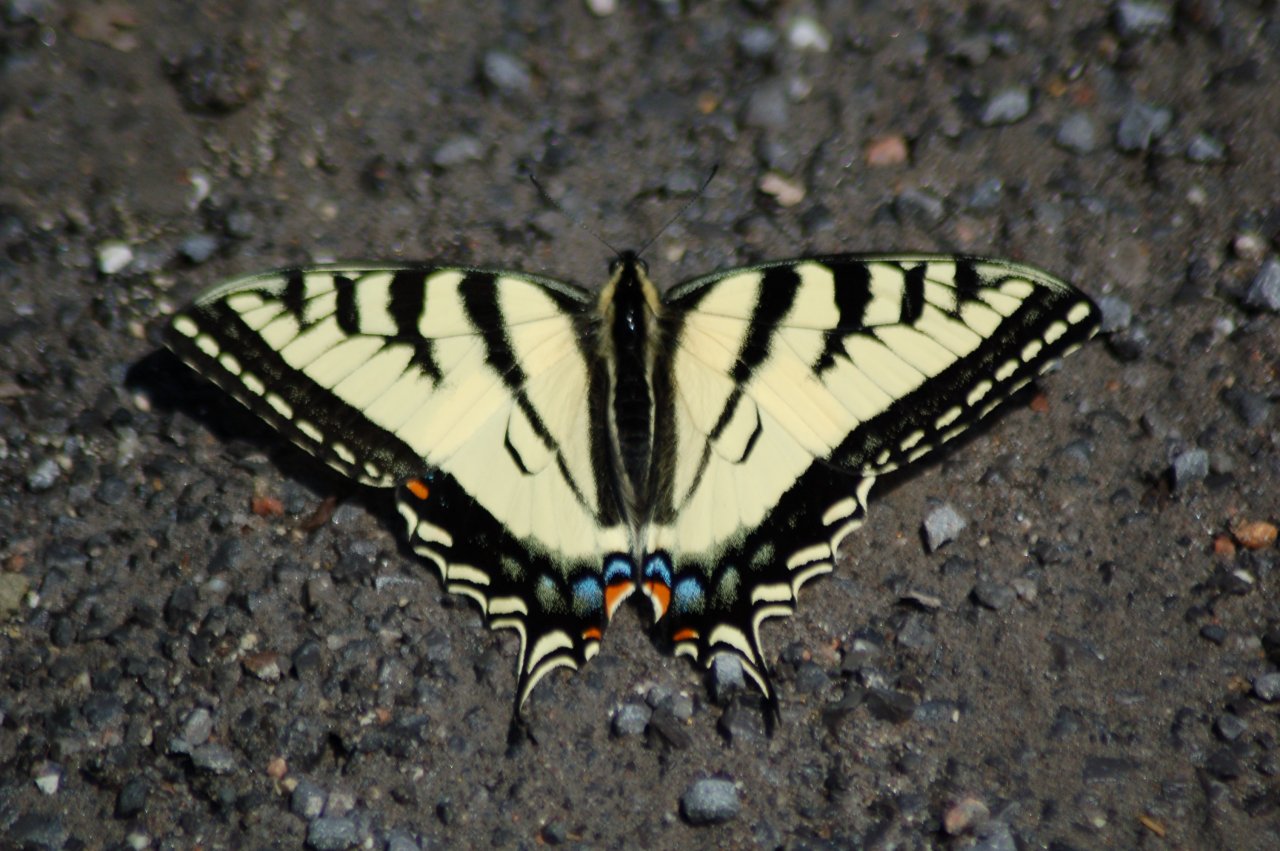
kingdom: Animalia
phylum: Arthropoda
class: Insecta
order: Lepidoptera
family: Papilionidae
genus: Pterourus
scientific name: Pterourus canadensis
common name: Canadian Tiger Swallowtail
